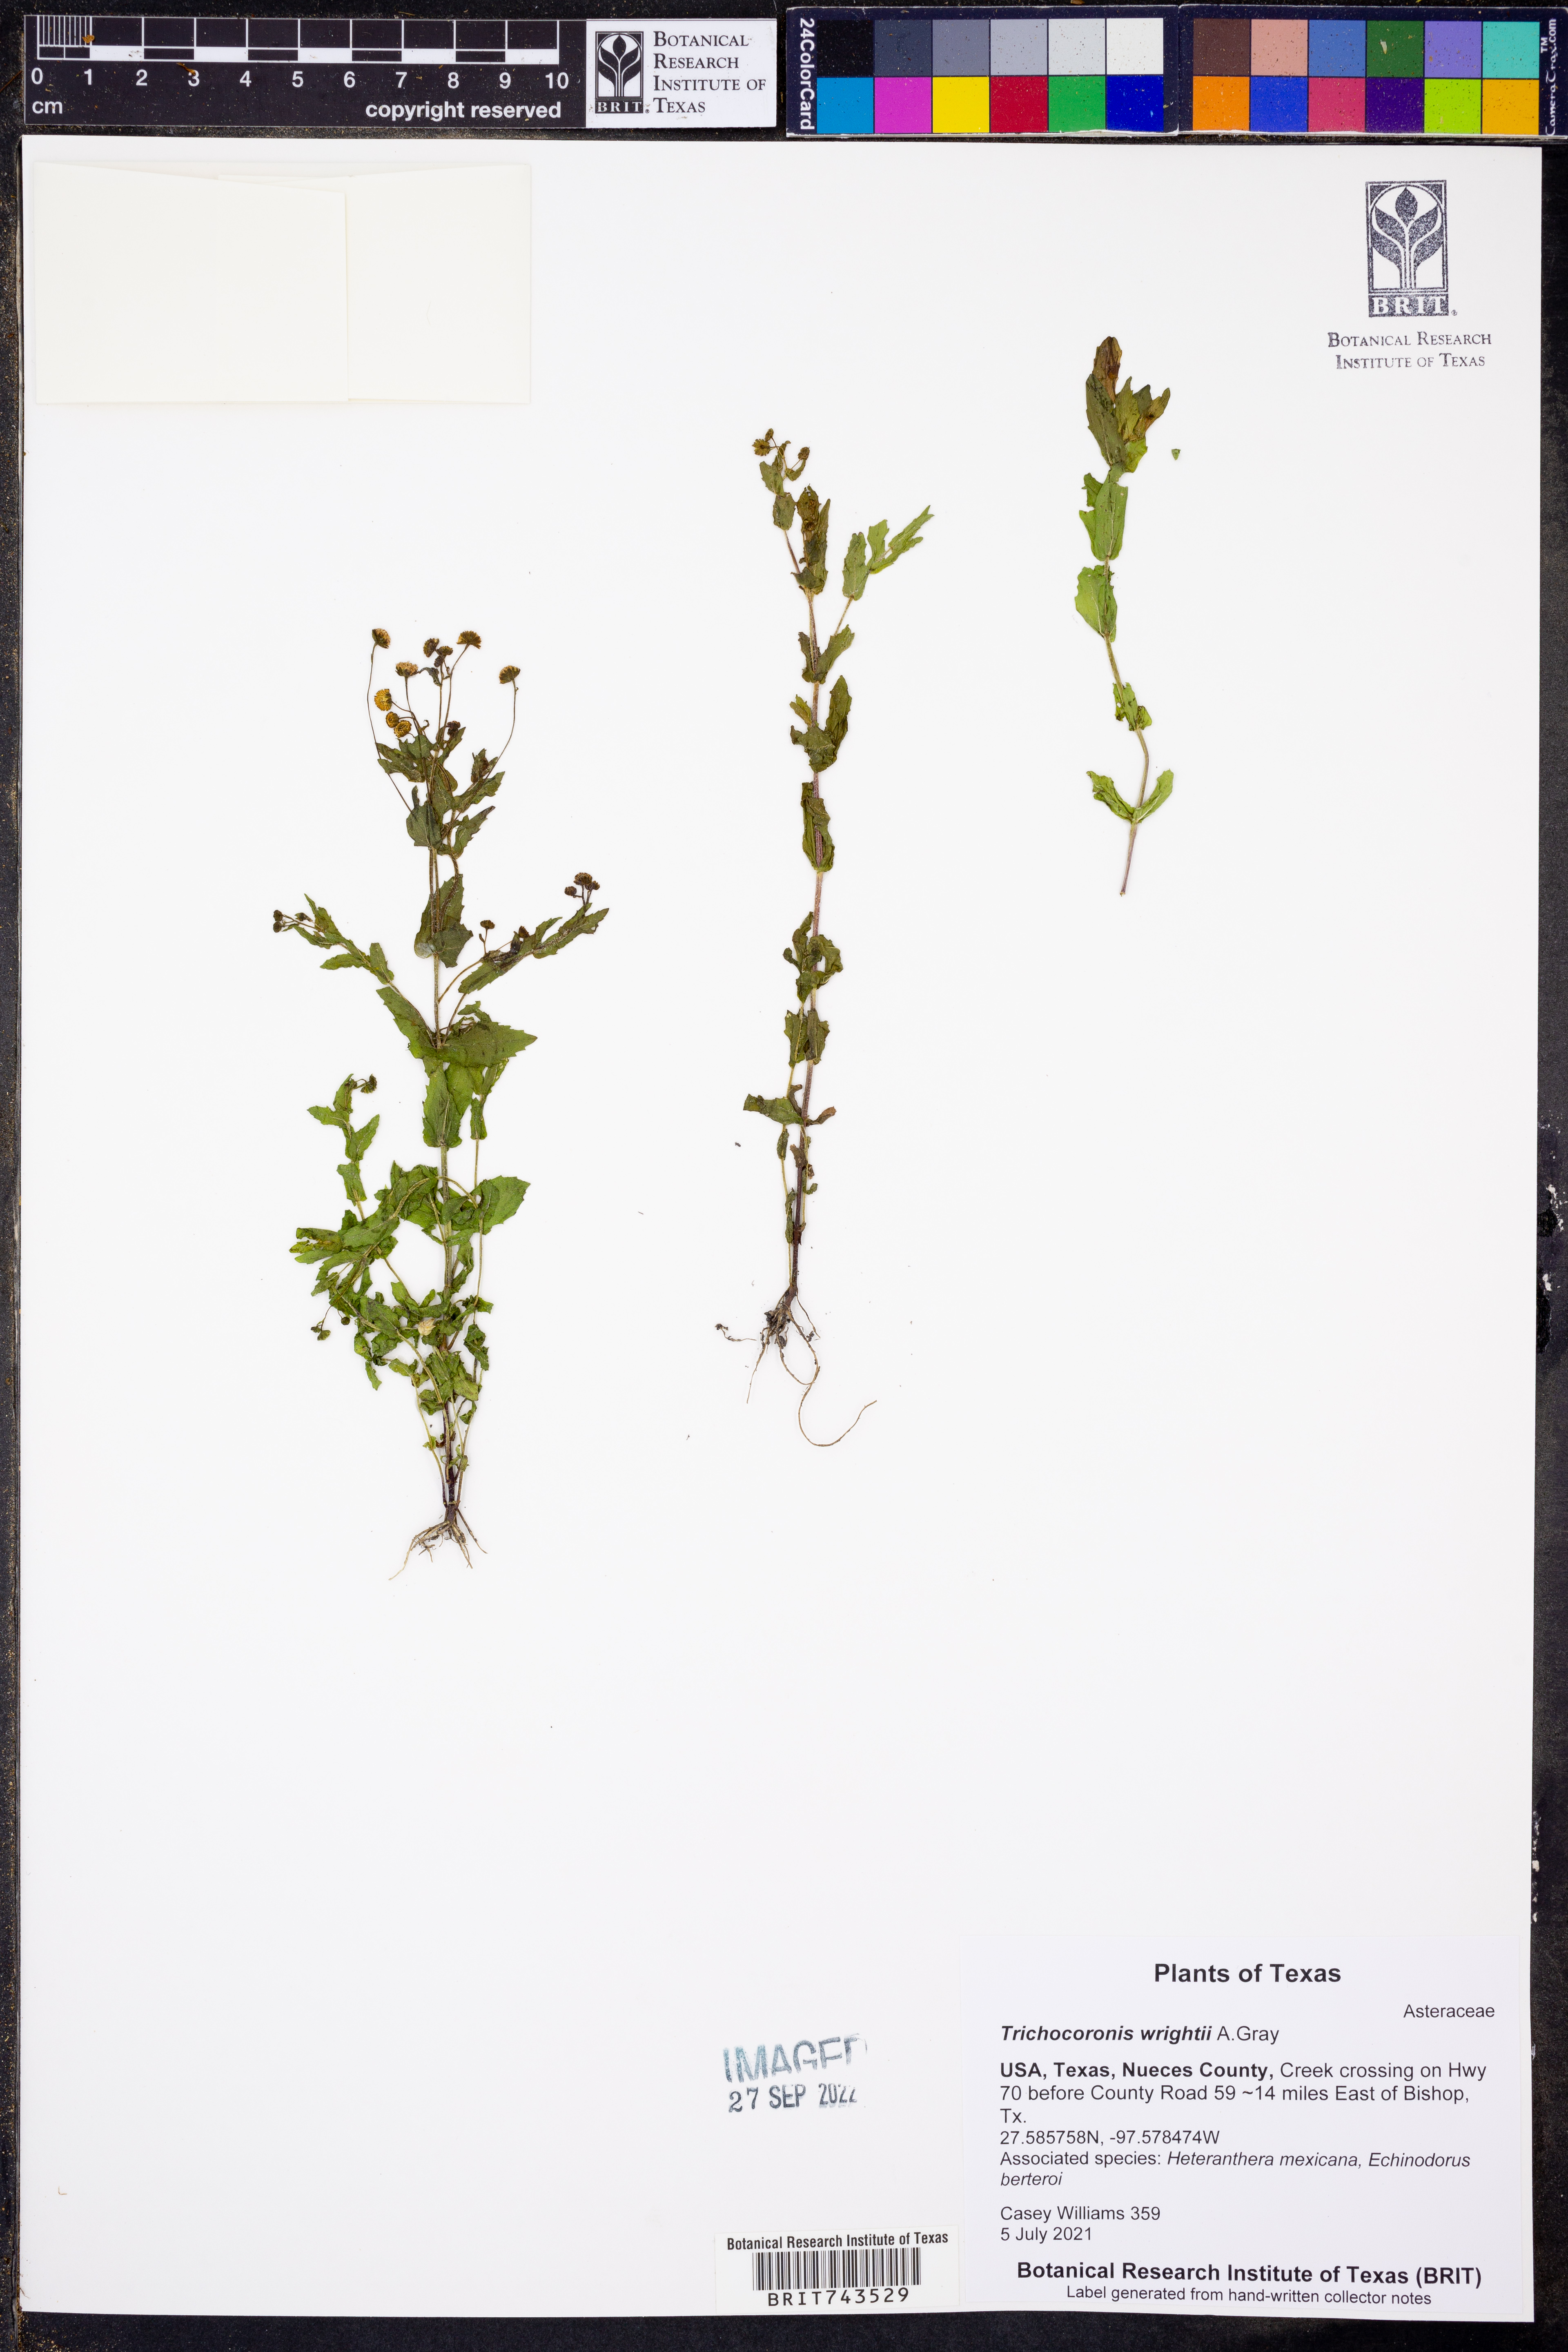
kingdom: Plantae
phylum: Tracheophyta
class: Magnoliopsida
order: Asterales
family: Asteraceae
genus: Trichocoronis
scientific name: Trichocoronis wrightii
